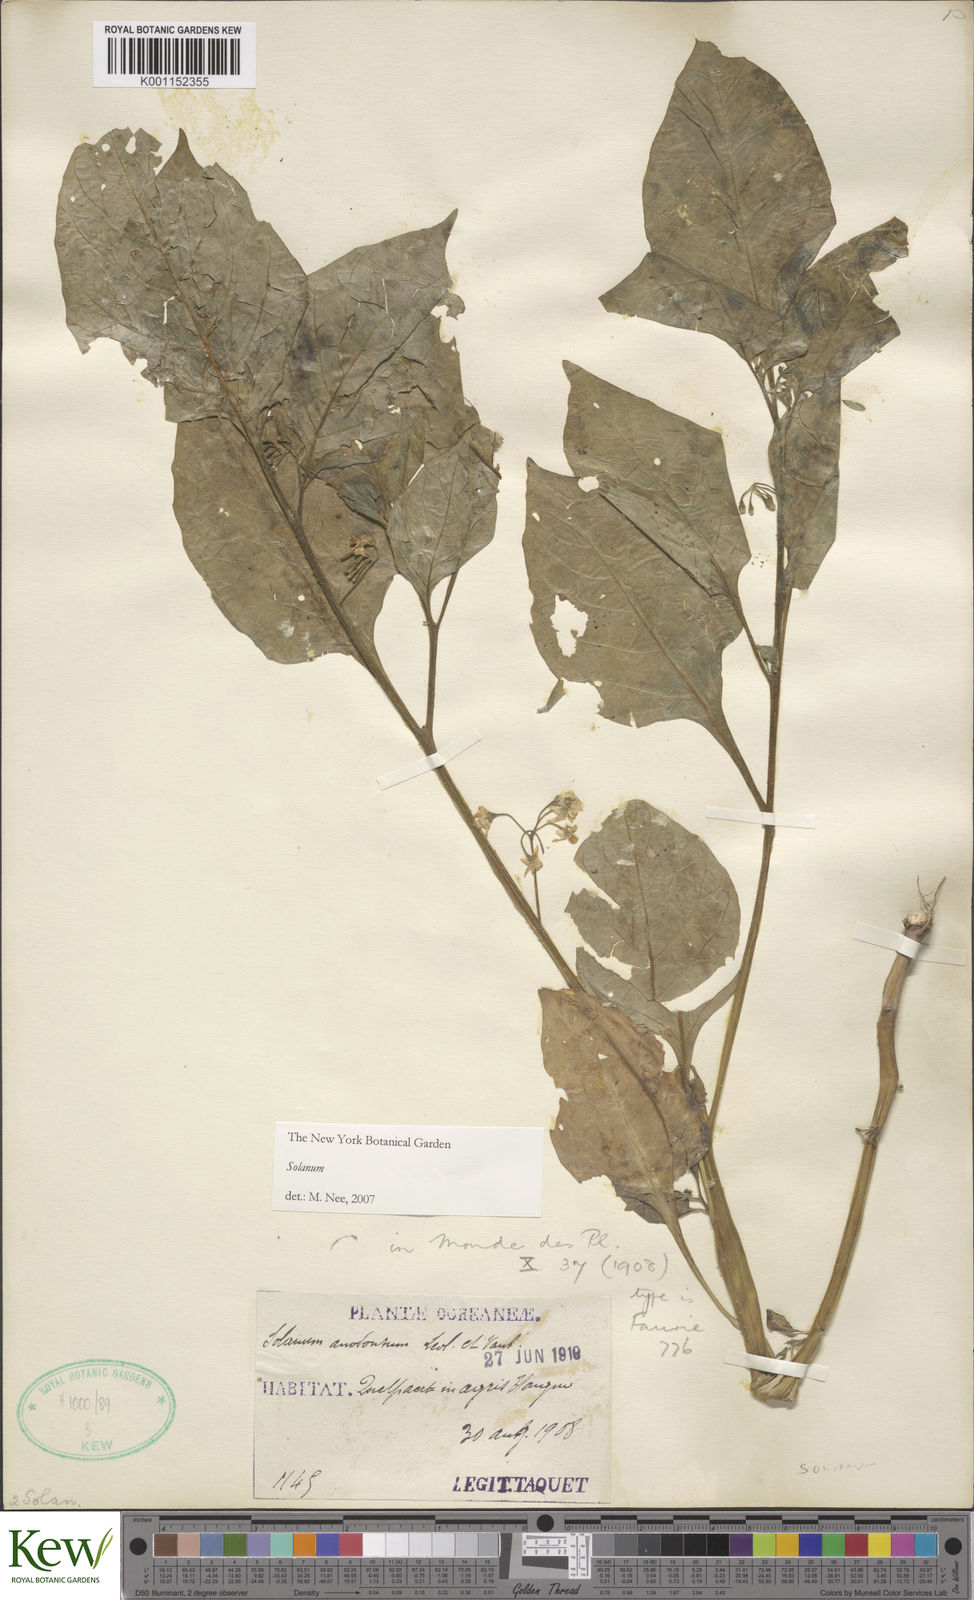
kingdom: Plantae
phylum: Tracheophyta
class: Magnoliopsida
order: Solanales
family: Solanaceae
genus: Solanum
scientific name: Solanum
